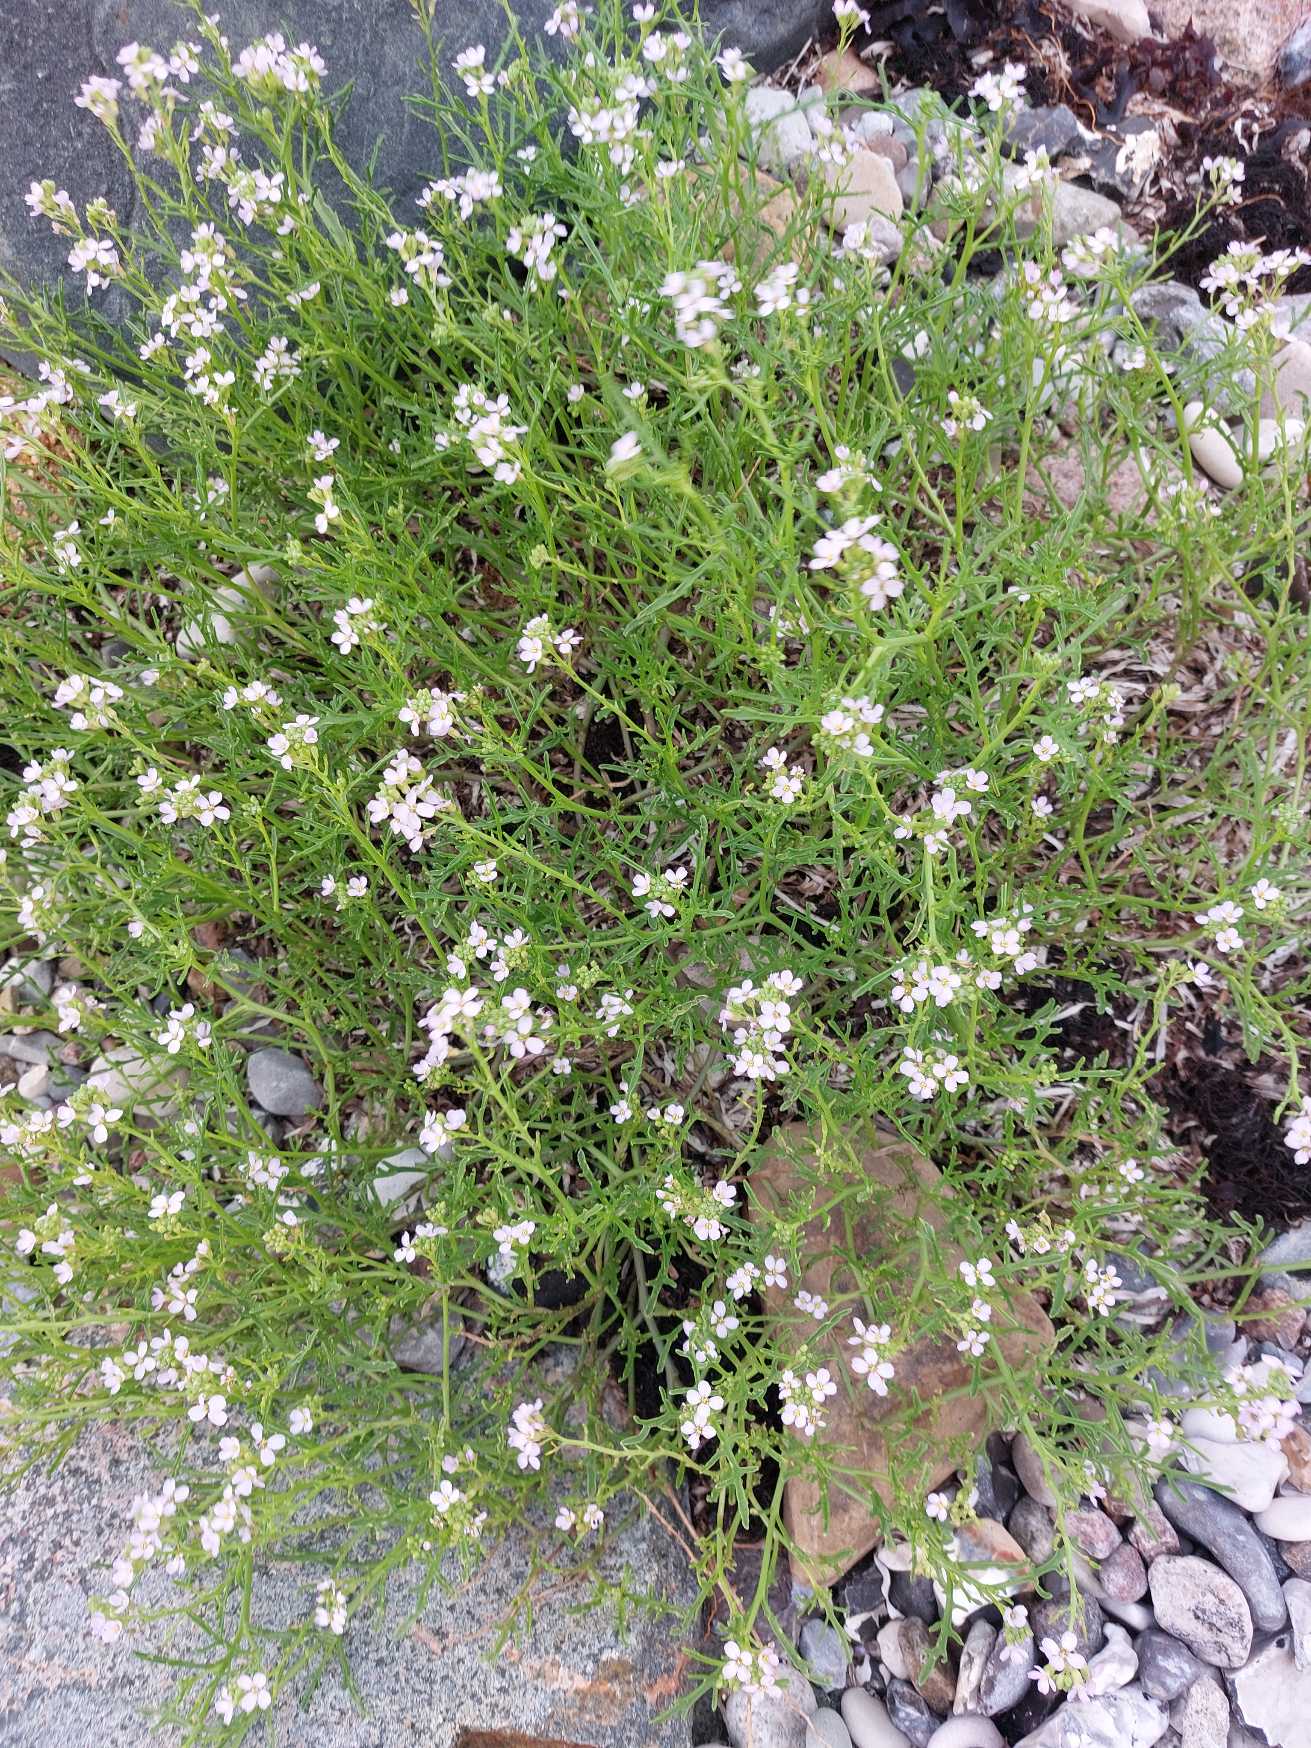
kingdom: Plantae
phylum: Tracheophyta
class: Magnoliopsida
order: Brassicales
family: Brassicaceae
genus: Cakile
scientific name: Cakile maritima
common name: Strandsennep
